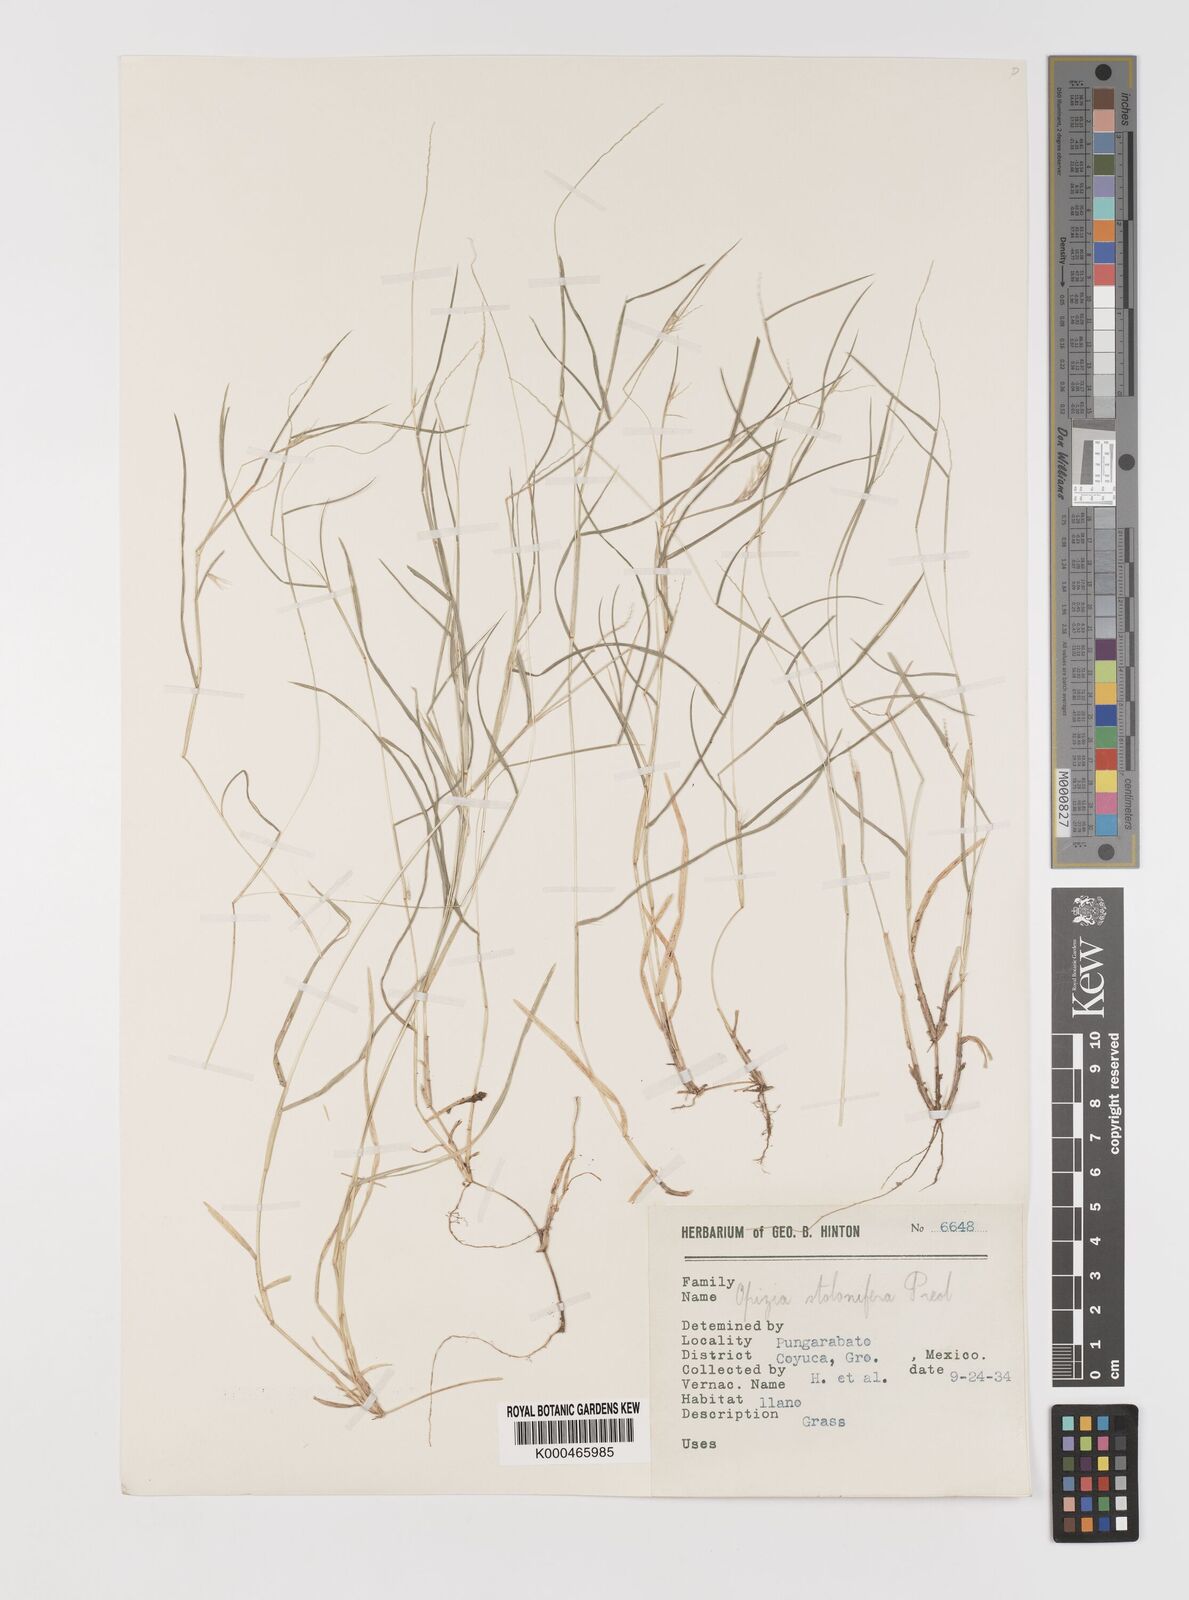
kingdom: Plantae
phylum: Tracheophyta
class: Liliopsida
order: Poales
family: Poaceae
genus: Bouteloua
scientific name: Bouteloua dimorpha
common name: Acapulco grass
